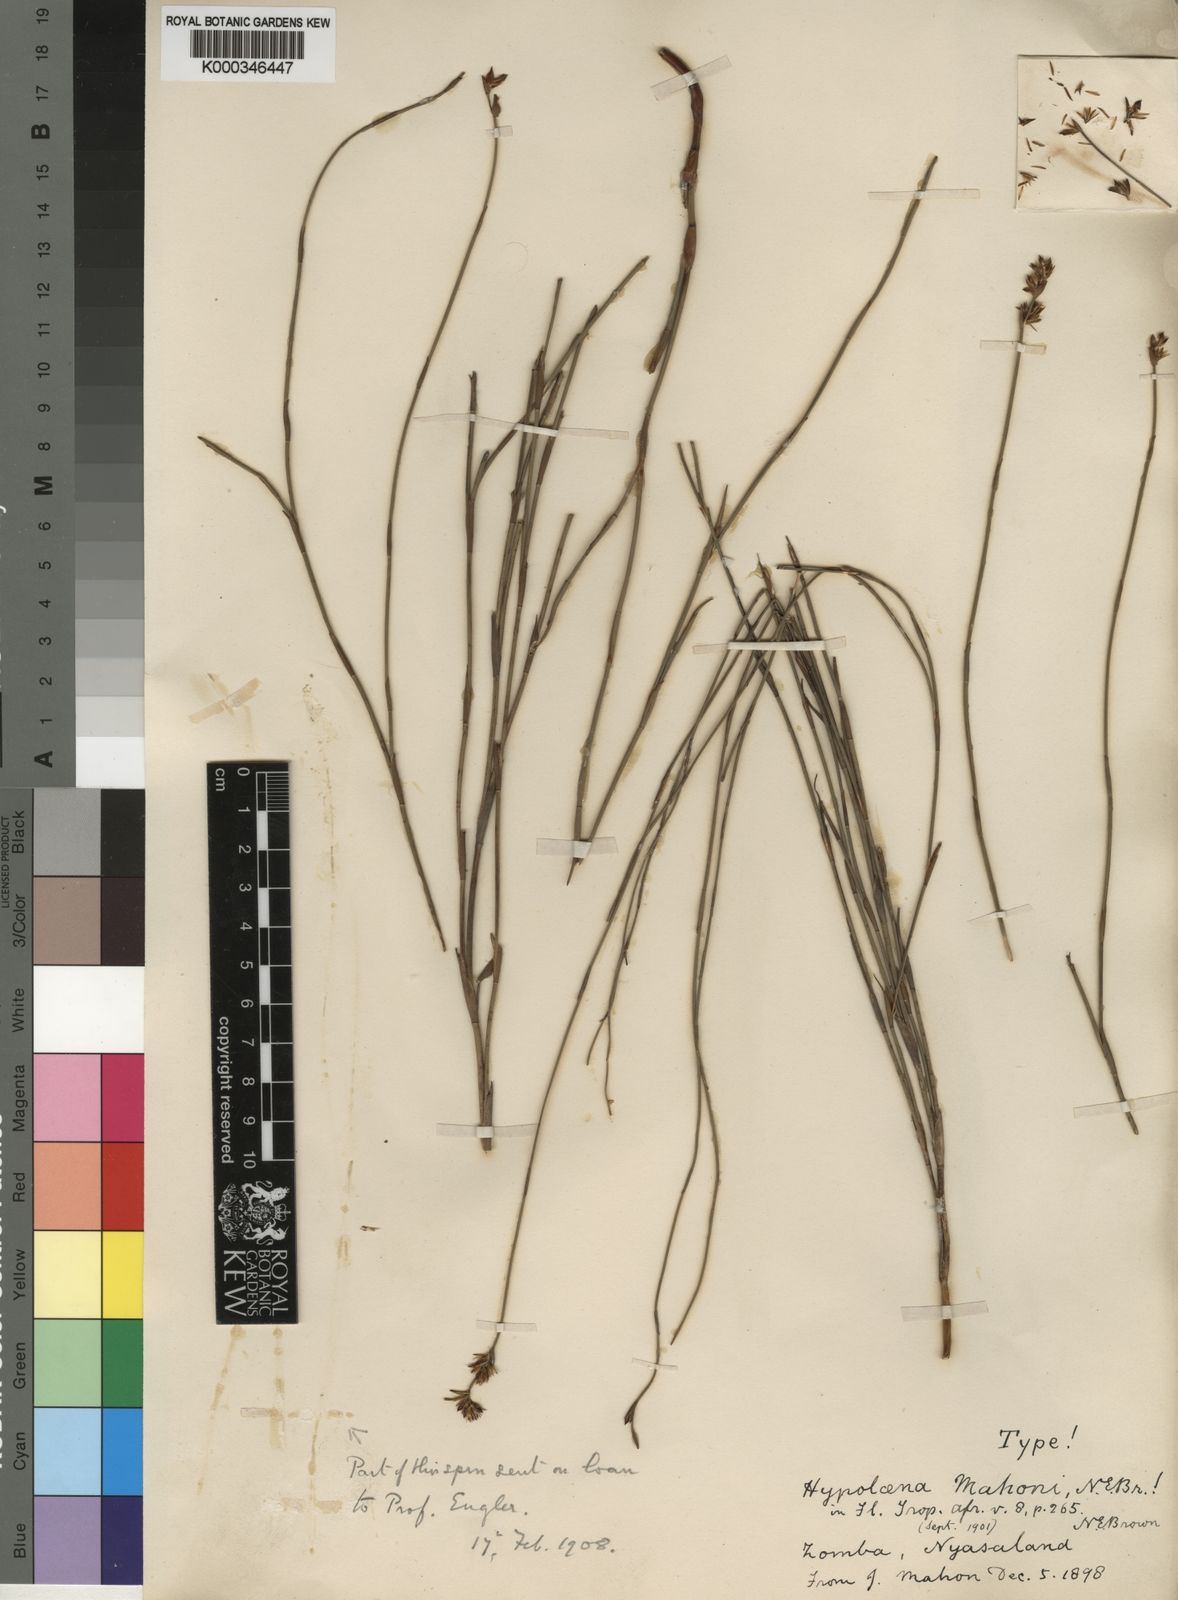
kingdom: Plantae
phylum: Tracheophyta
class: Liliopsida
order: Poales
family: Restionaceae
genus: Platycaulos
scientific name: Platycaulos mahonii
